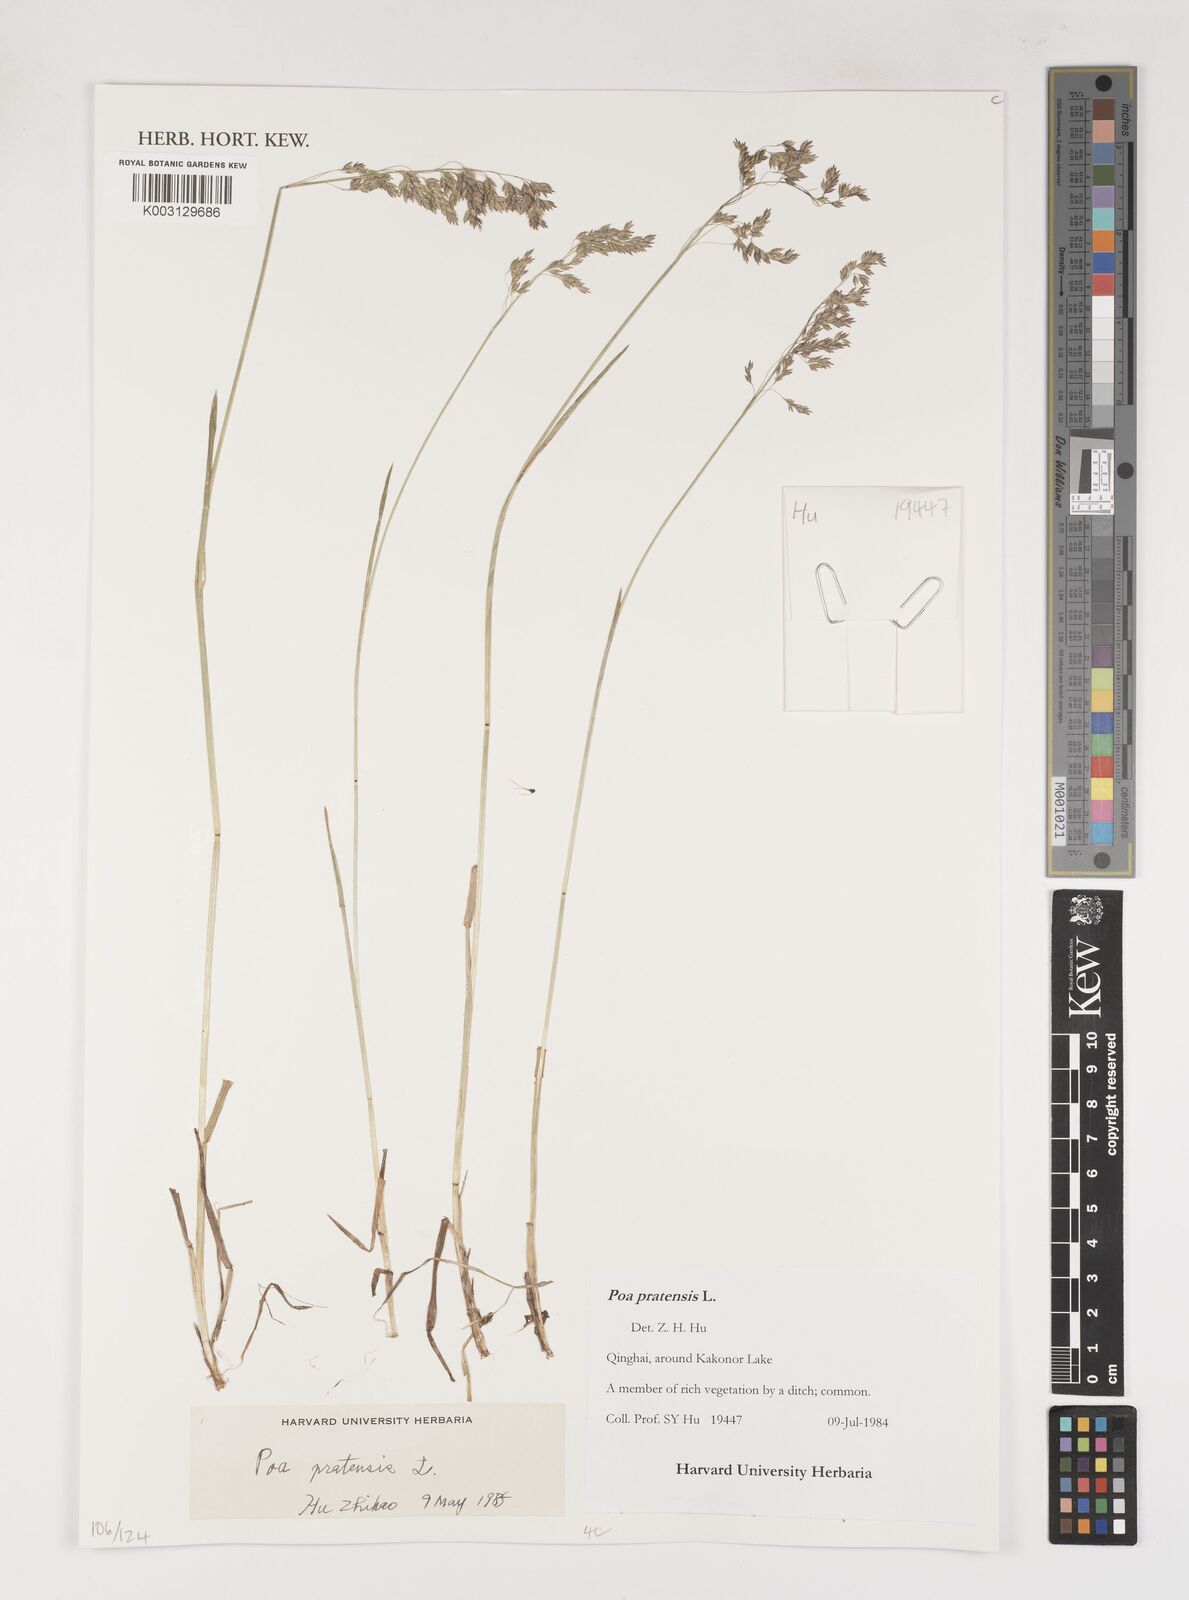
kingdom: Plantae
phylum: Tracheophyta
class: Liliopsida
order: Poales
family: Poaceae
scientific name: Poaceae
